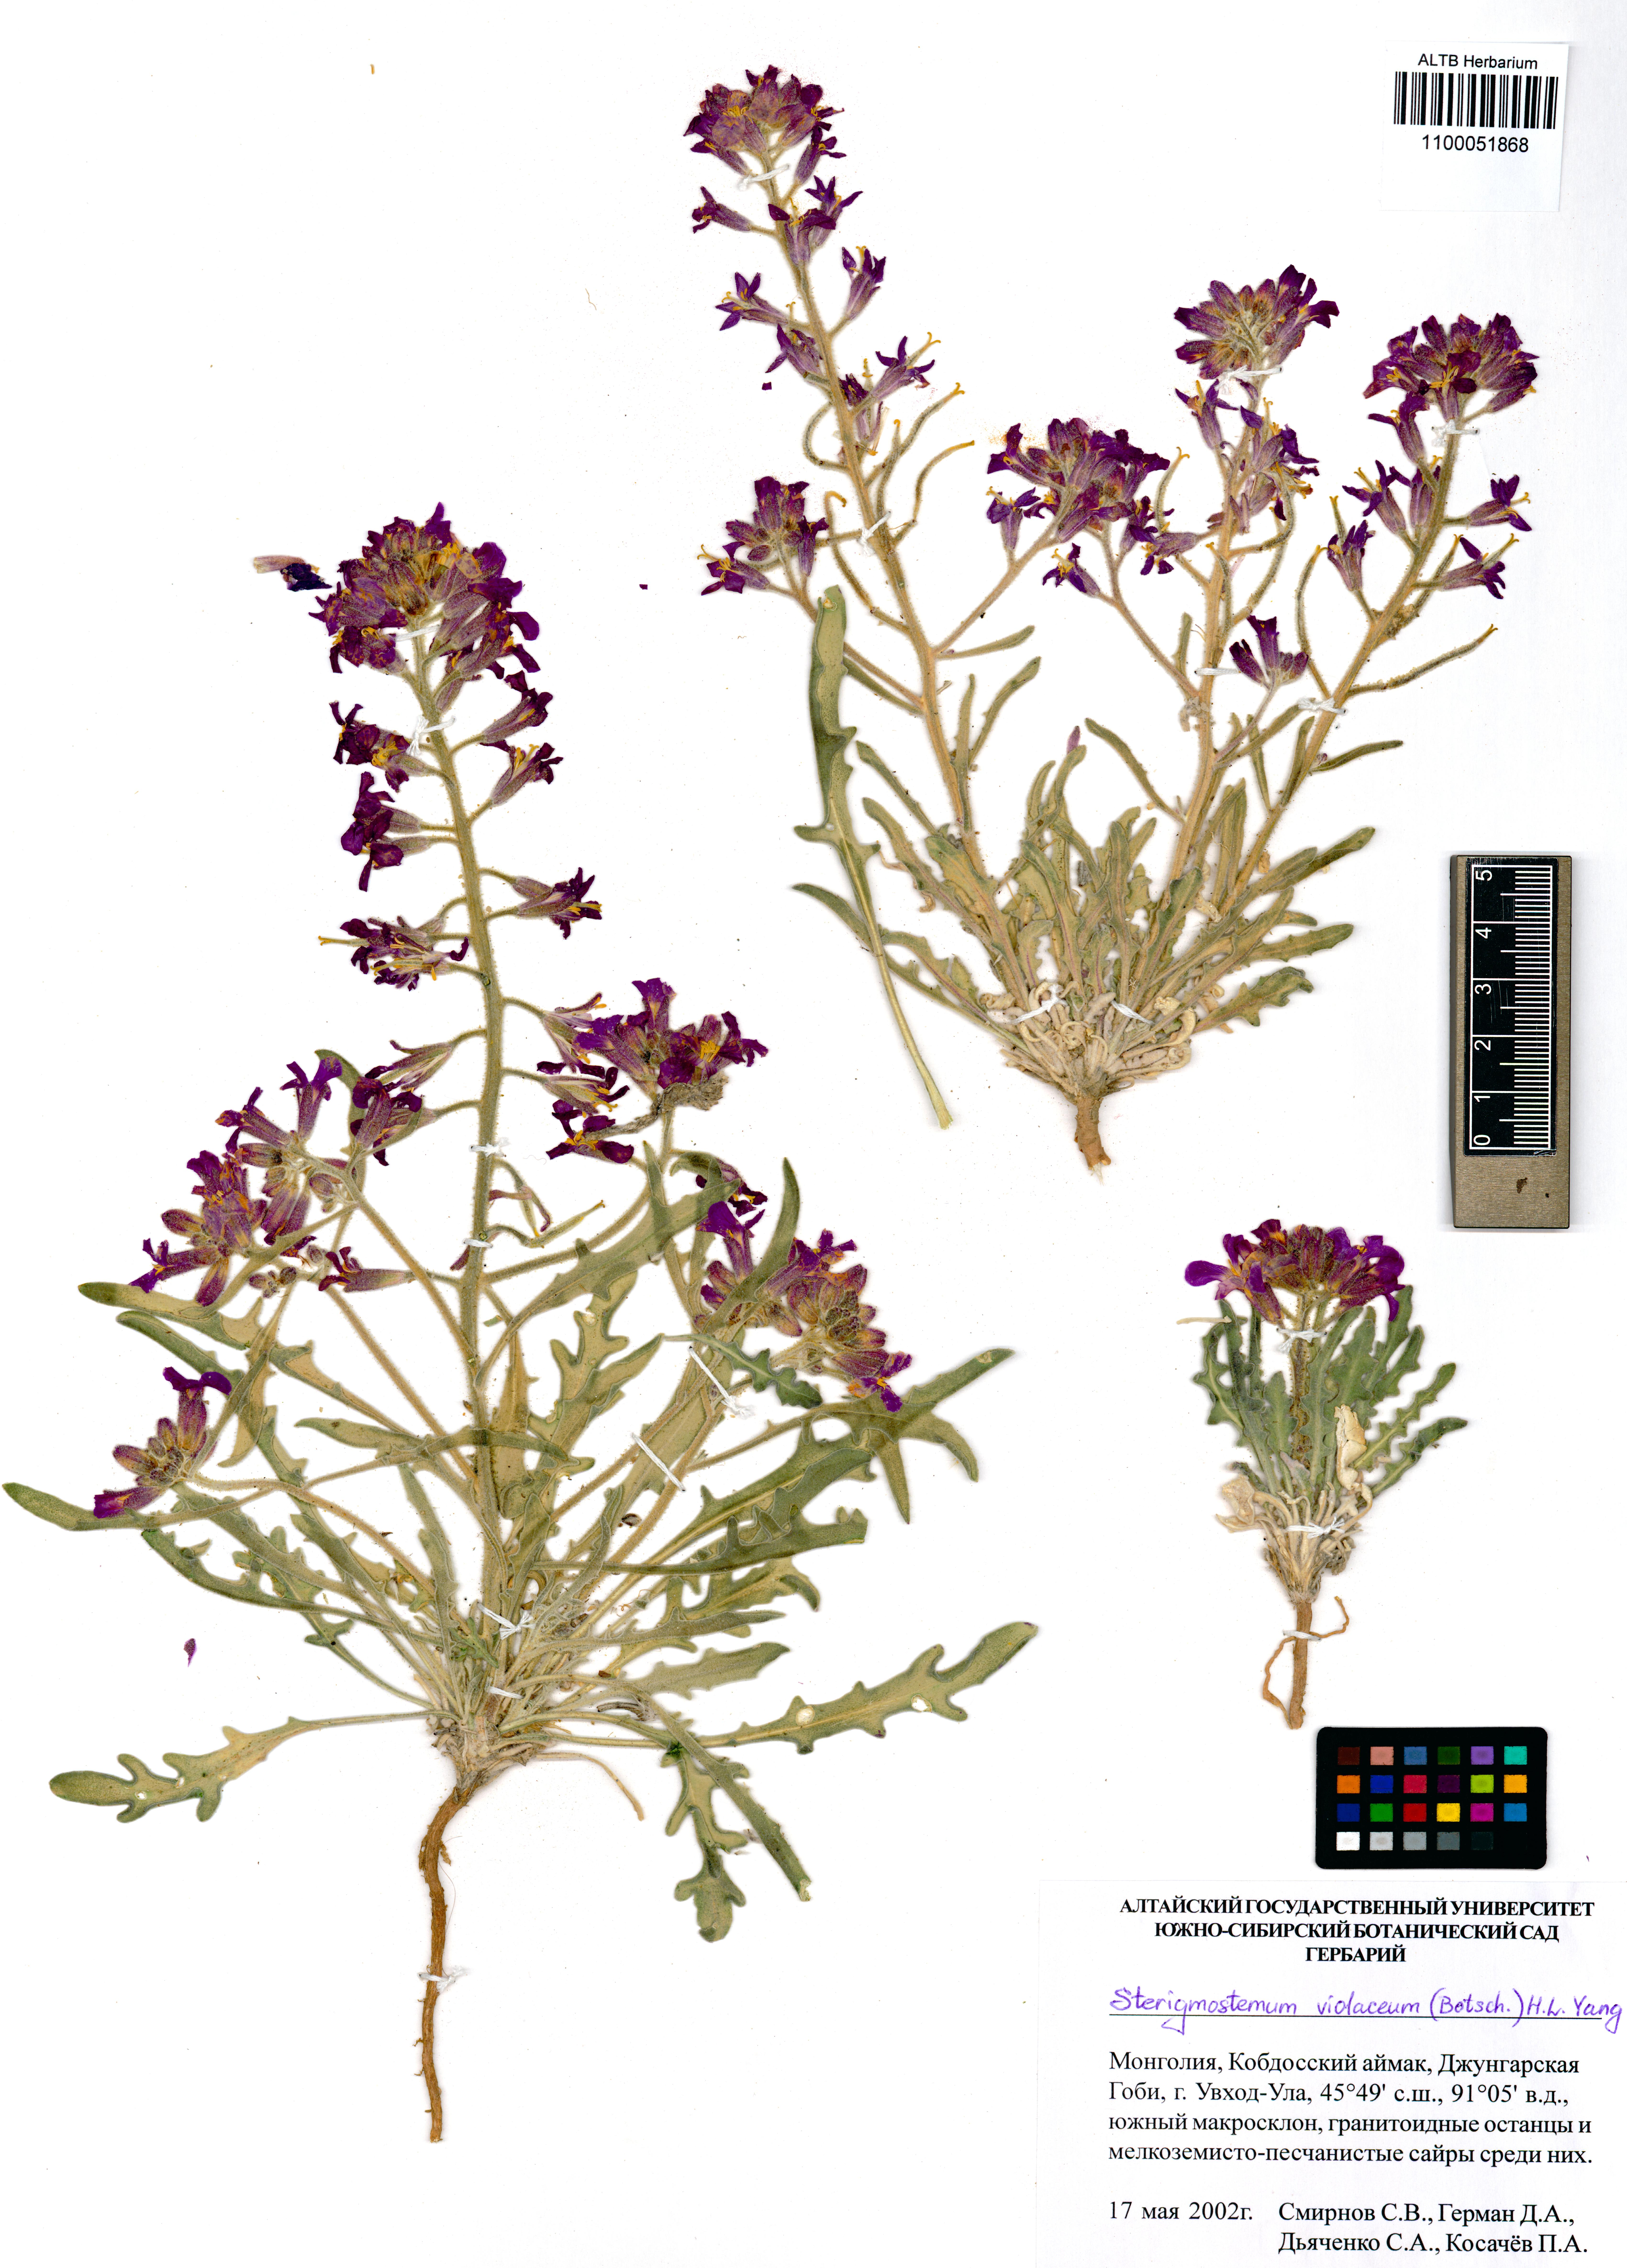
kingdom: Plantae
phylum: Tracheophyta
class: Magnoliopsida
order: Brassicales
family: Brassicaceae
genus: Sterigmostemum
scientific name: Sterigmostemum violaceum
